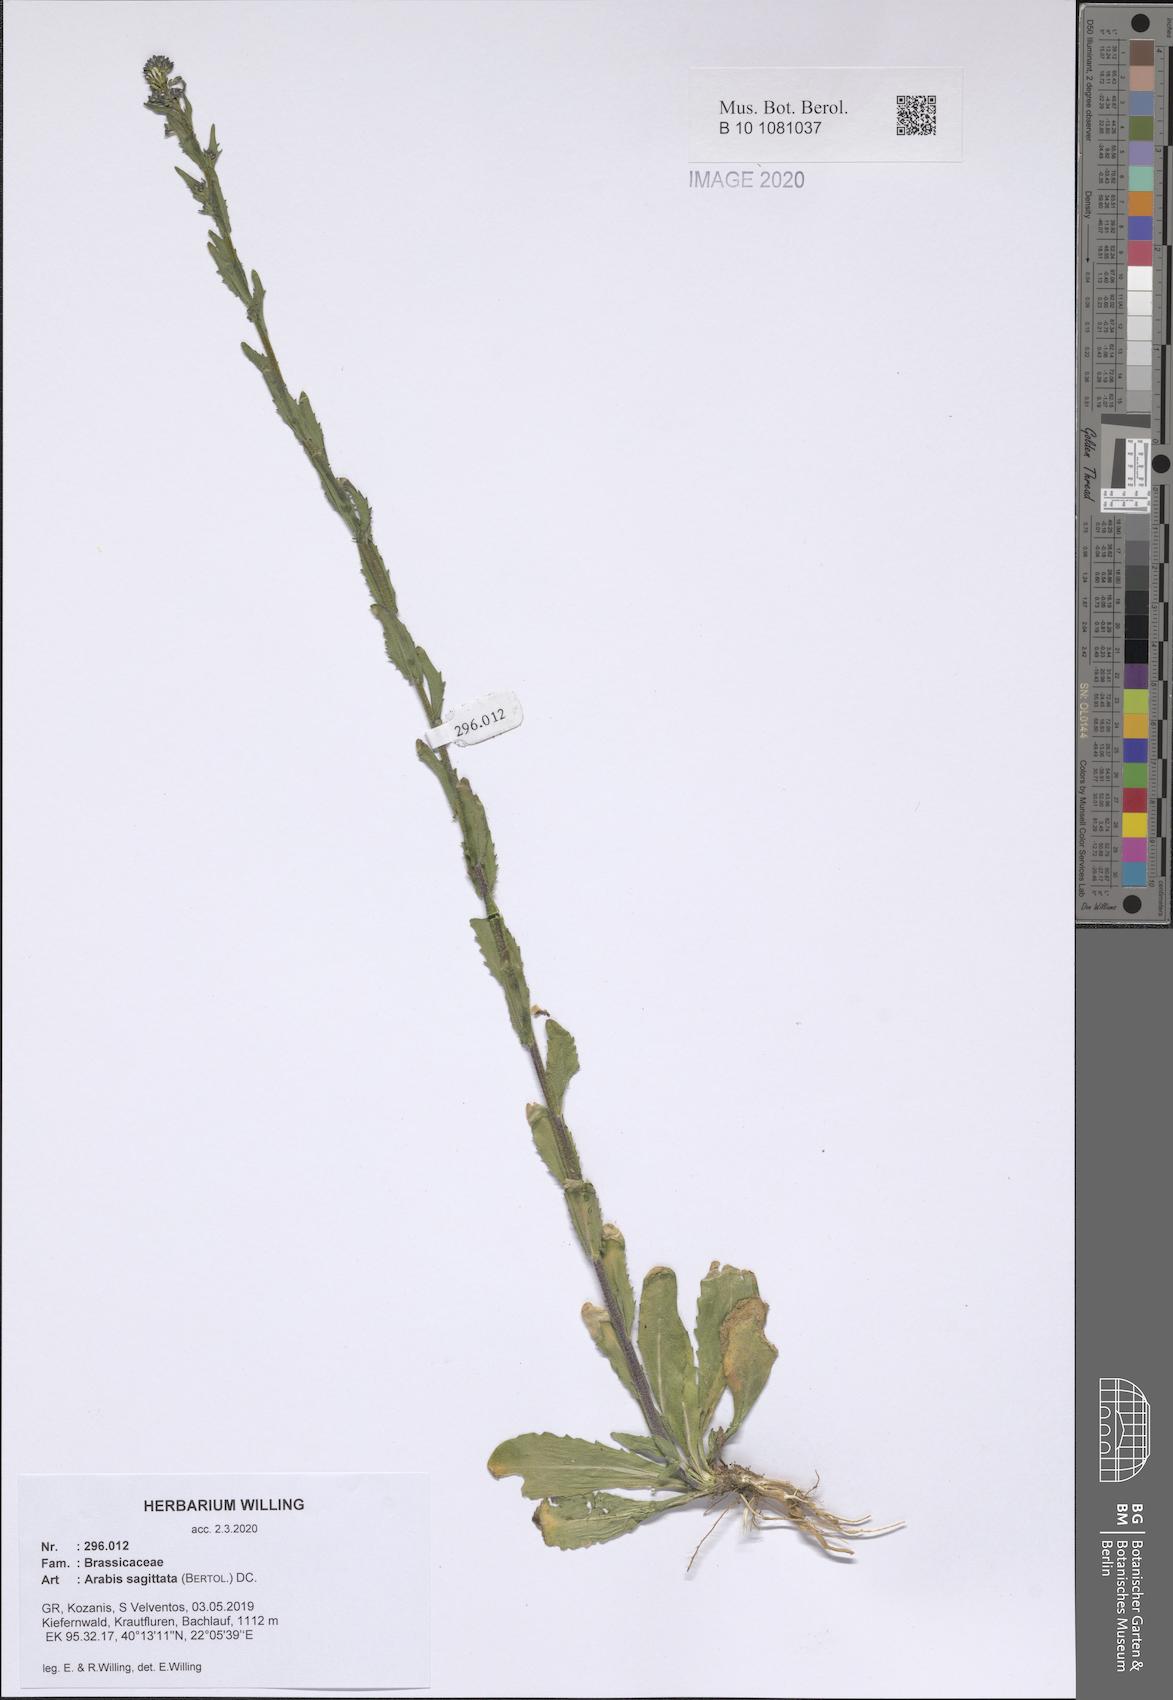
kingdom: Plantae
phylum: Tracheophyta
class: Magnoliopsida
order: Brassicales
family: Brassicaceae
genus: Arabis
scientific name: Arabis sagittata
